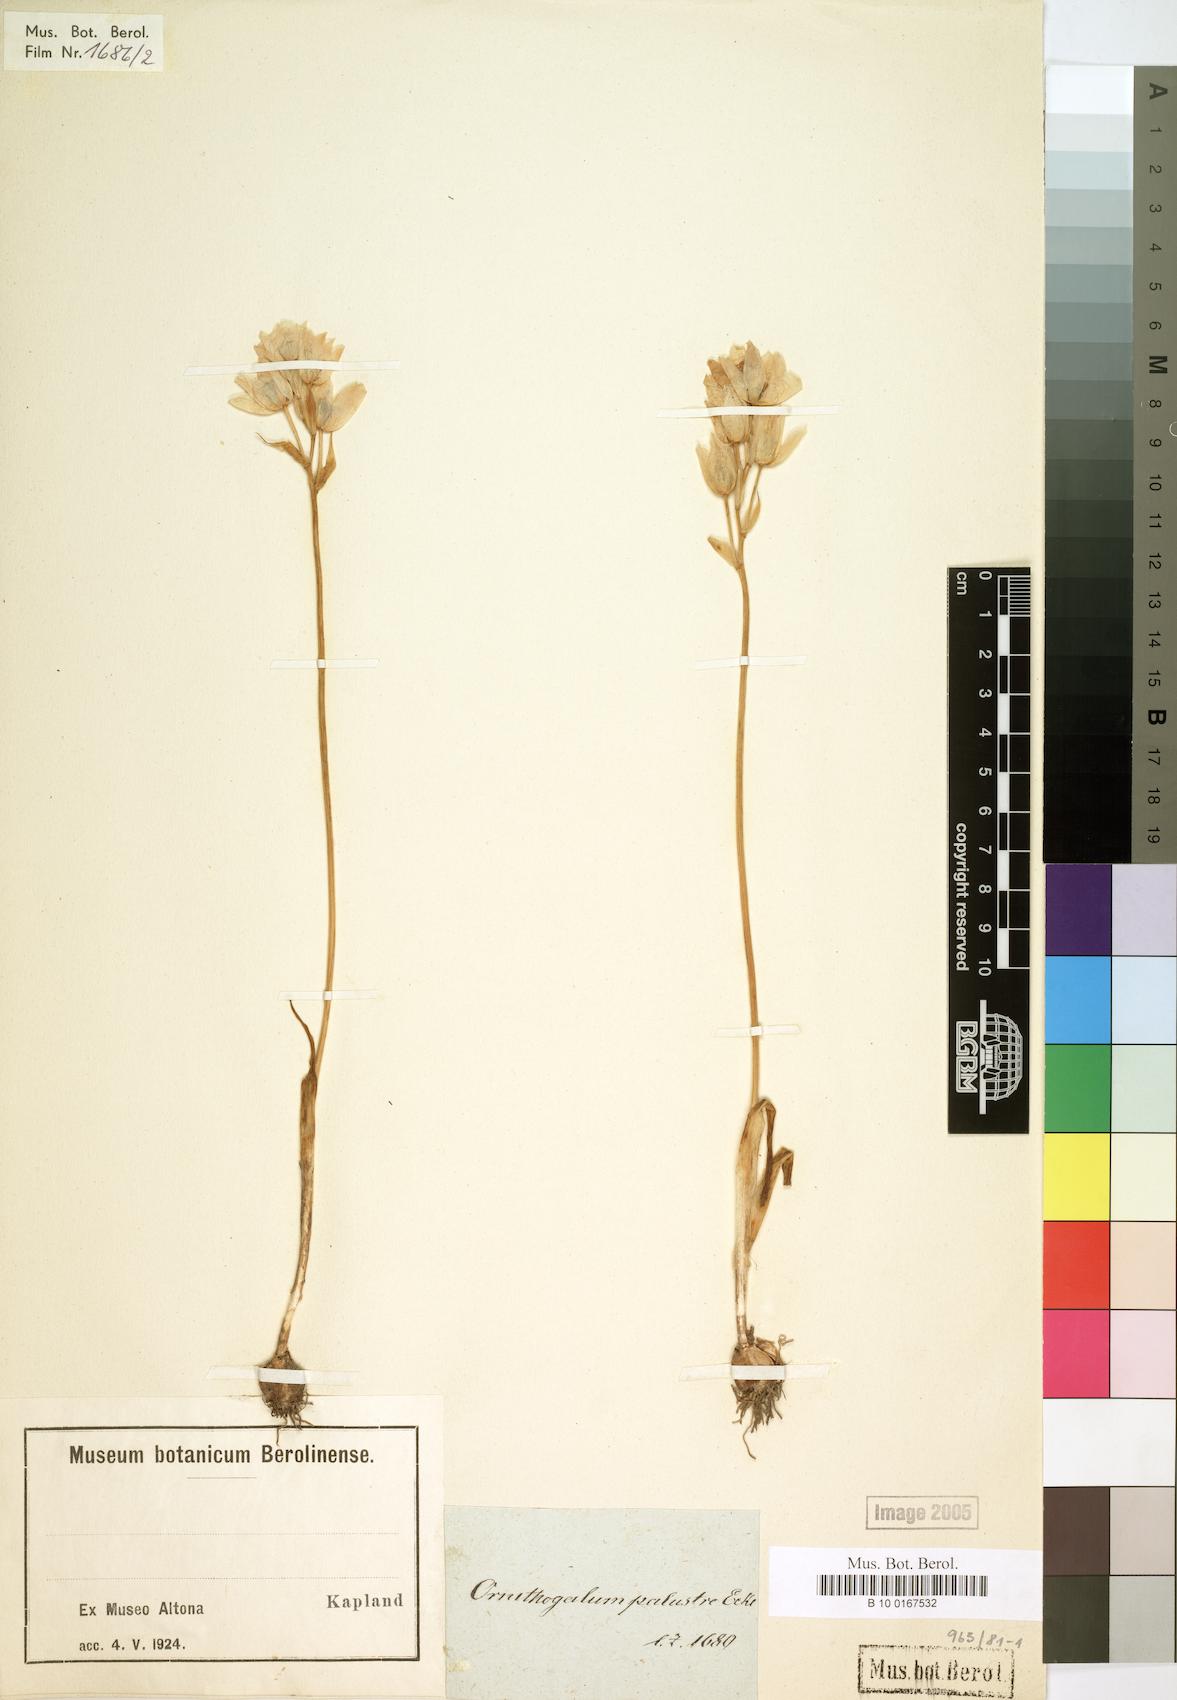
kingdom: Plantae
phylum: Tracheophyta
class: Liliopsida
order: Asparagales
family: Asparagaceae
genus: Ornithogalum
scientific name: Ornithogalum palustre
